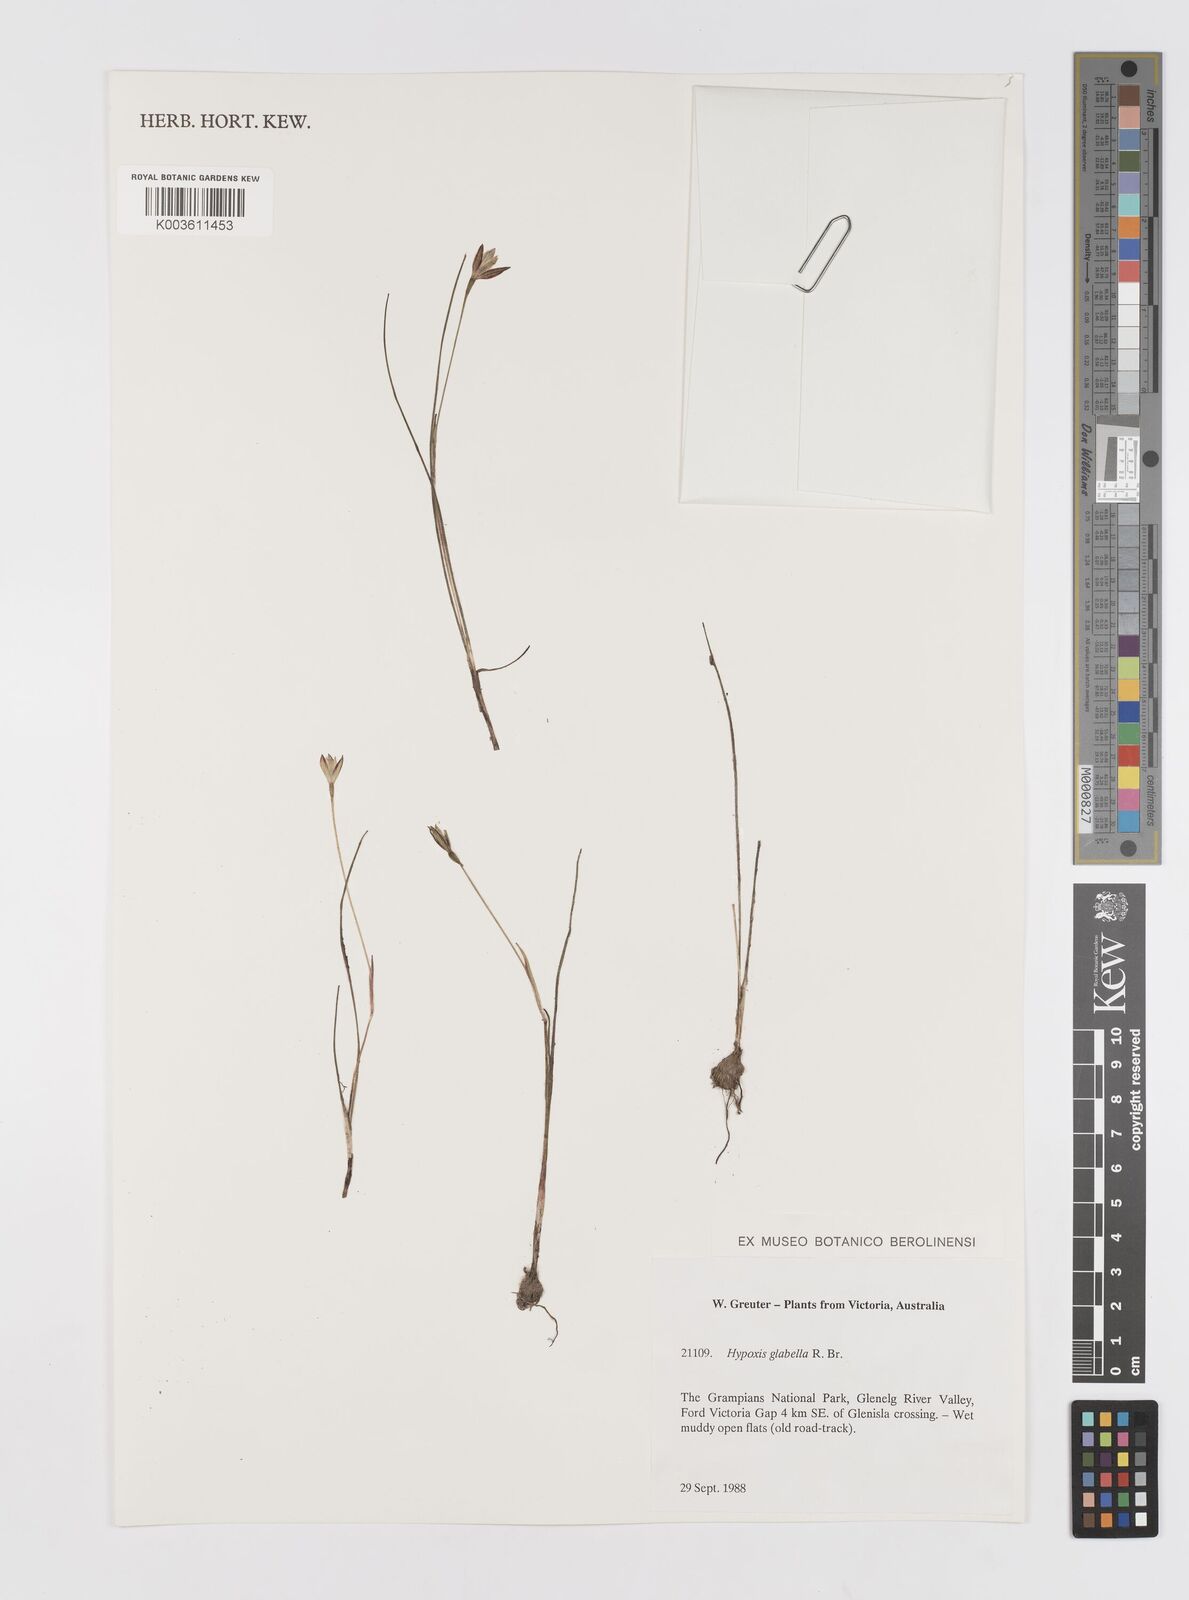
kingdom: Plantae
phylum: Tracheophyta
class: Liliopsida
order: Asparagales
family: Hypoxidaceae
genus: Pauridia
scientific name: Pauridia glabella
